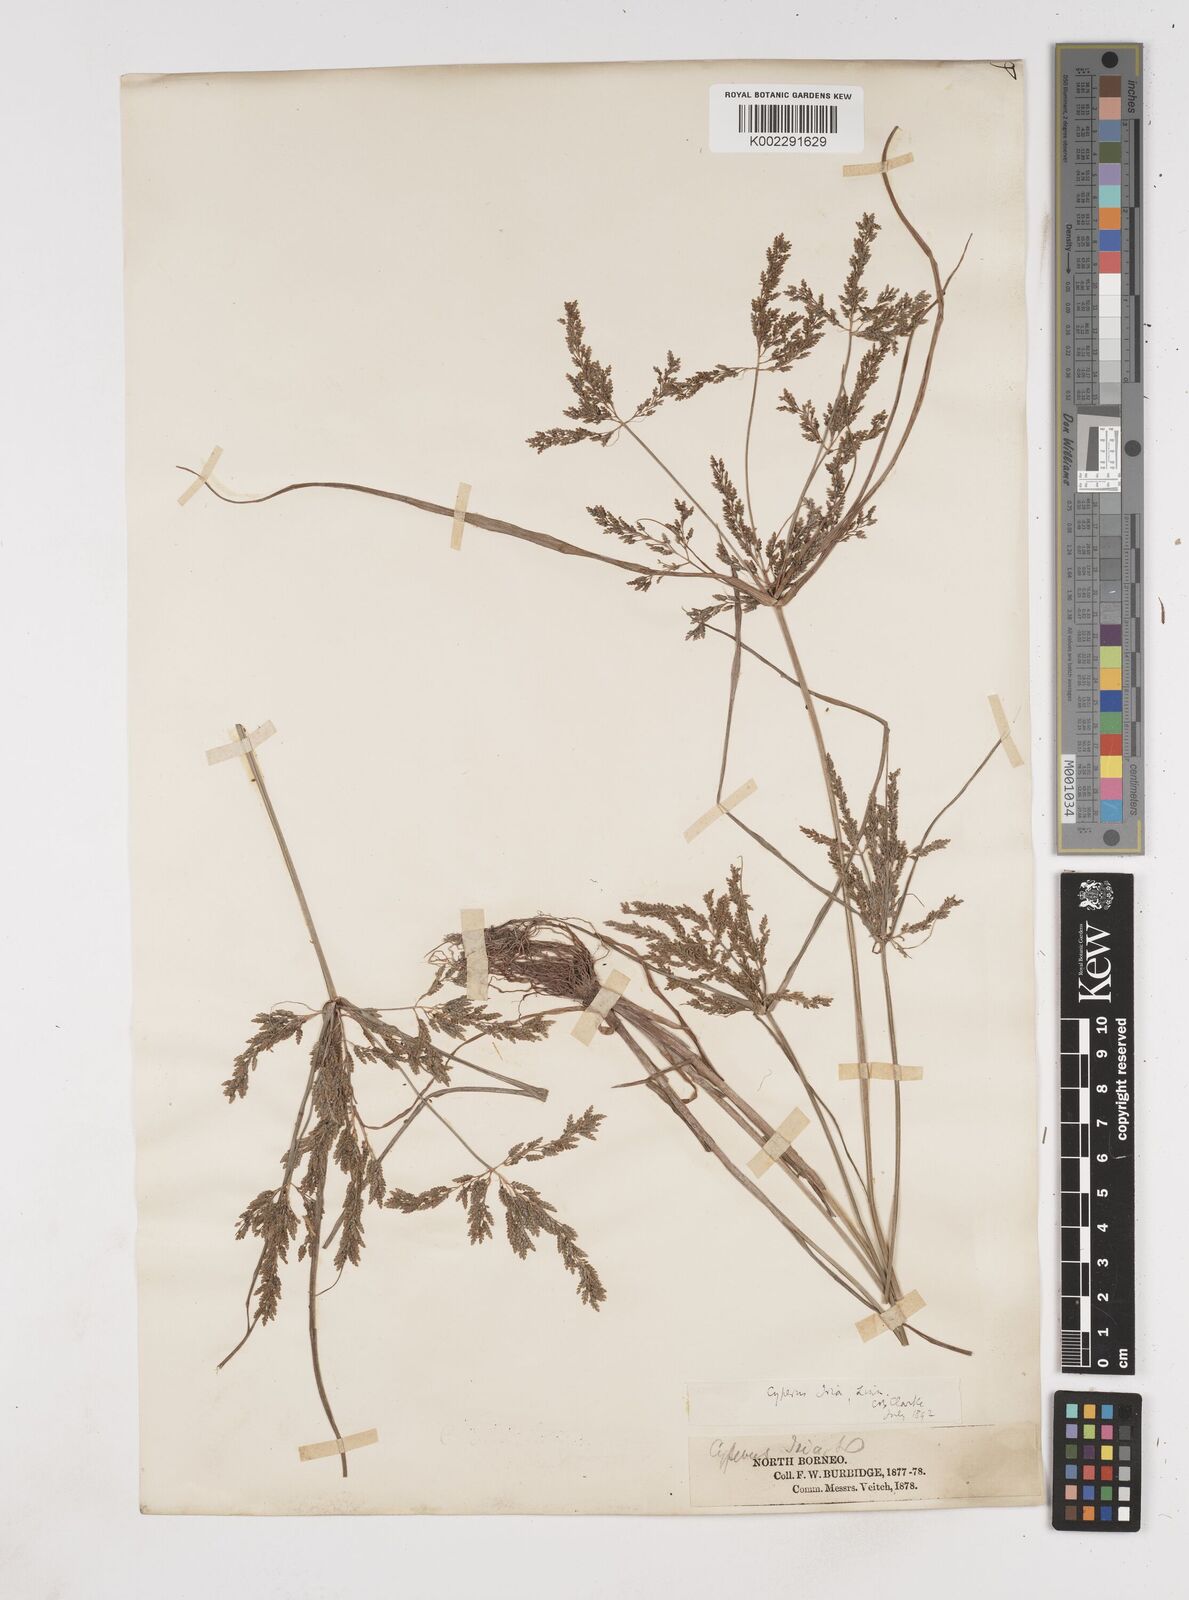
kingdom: Plantae
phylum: Tracheophyta
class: Liliopsida
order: Poales
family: Cyperaceae
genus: Cyperus
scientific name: Cyperus iria
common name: Ricefield flatsedge
